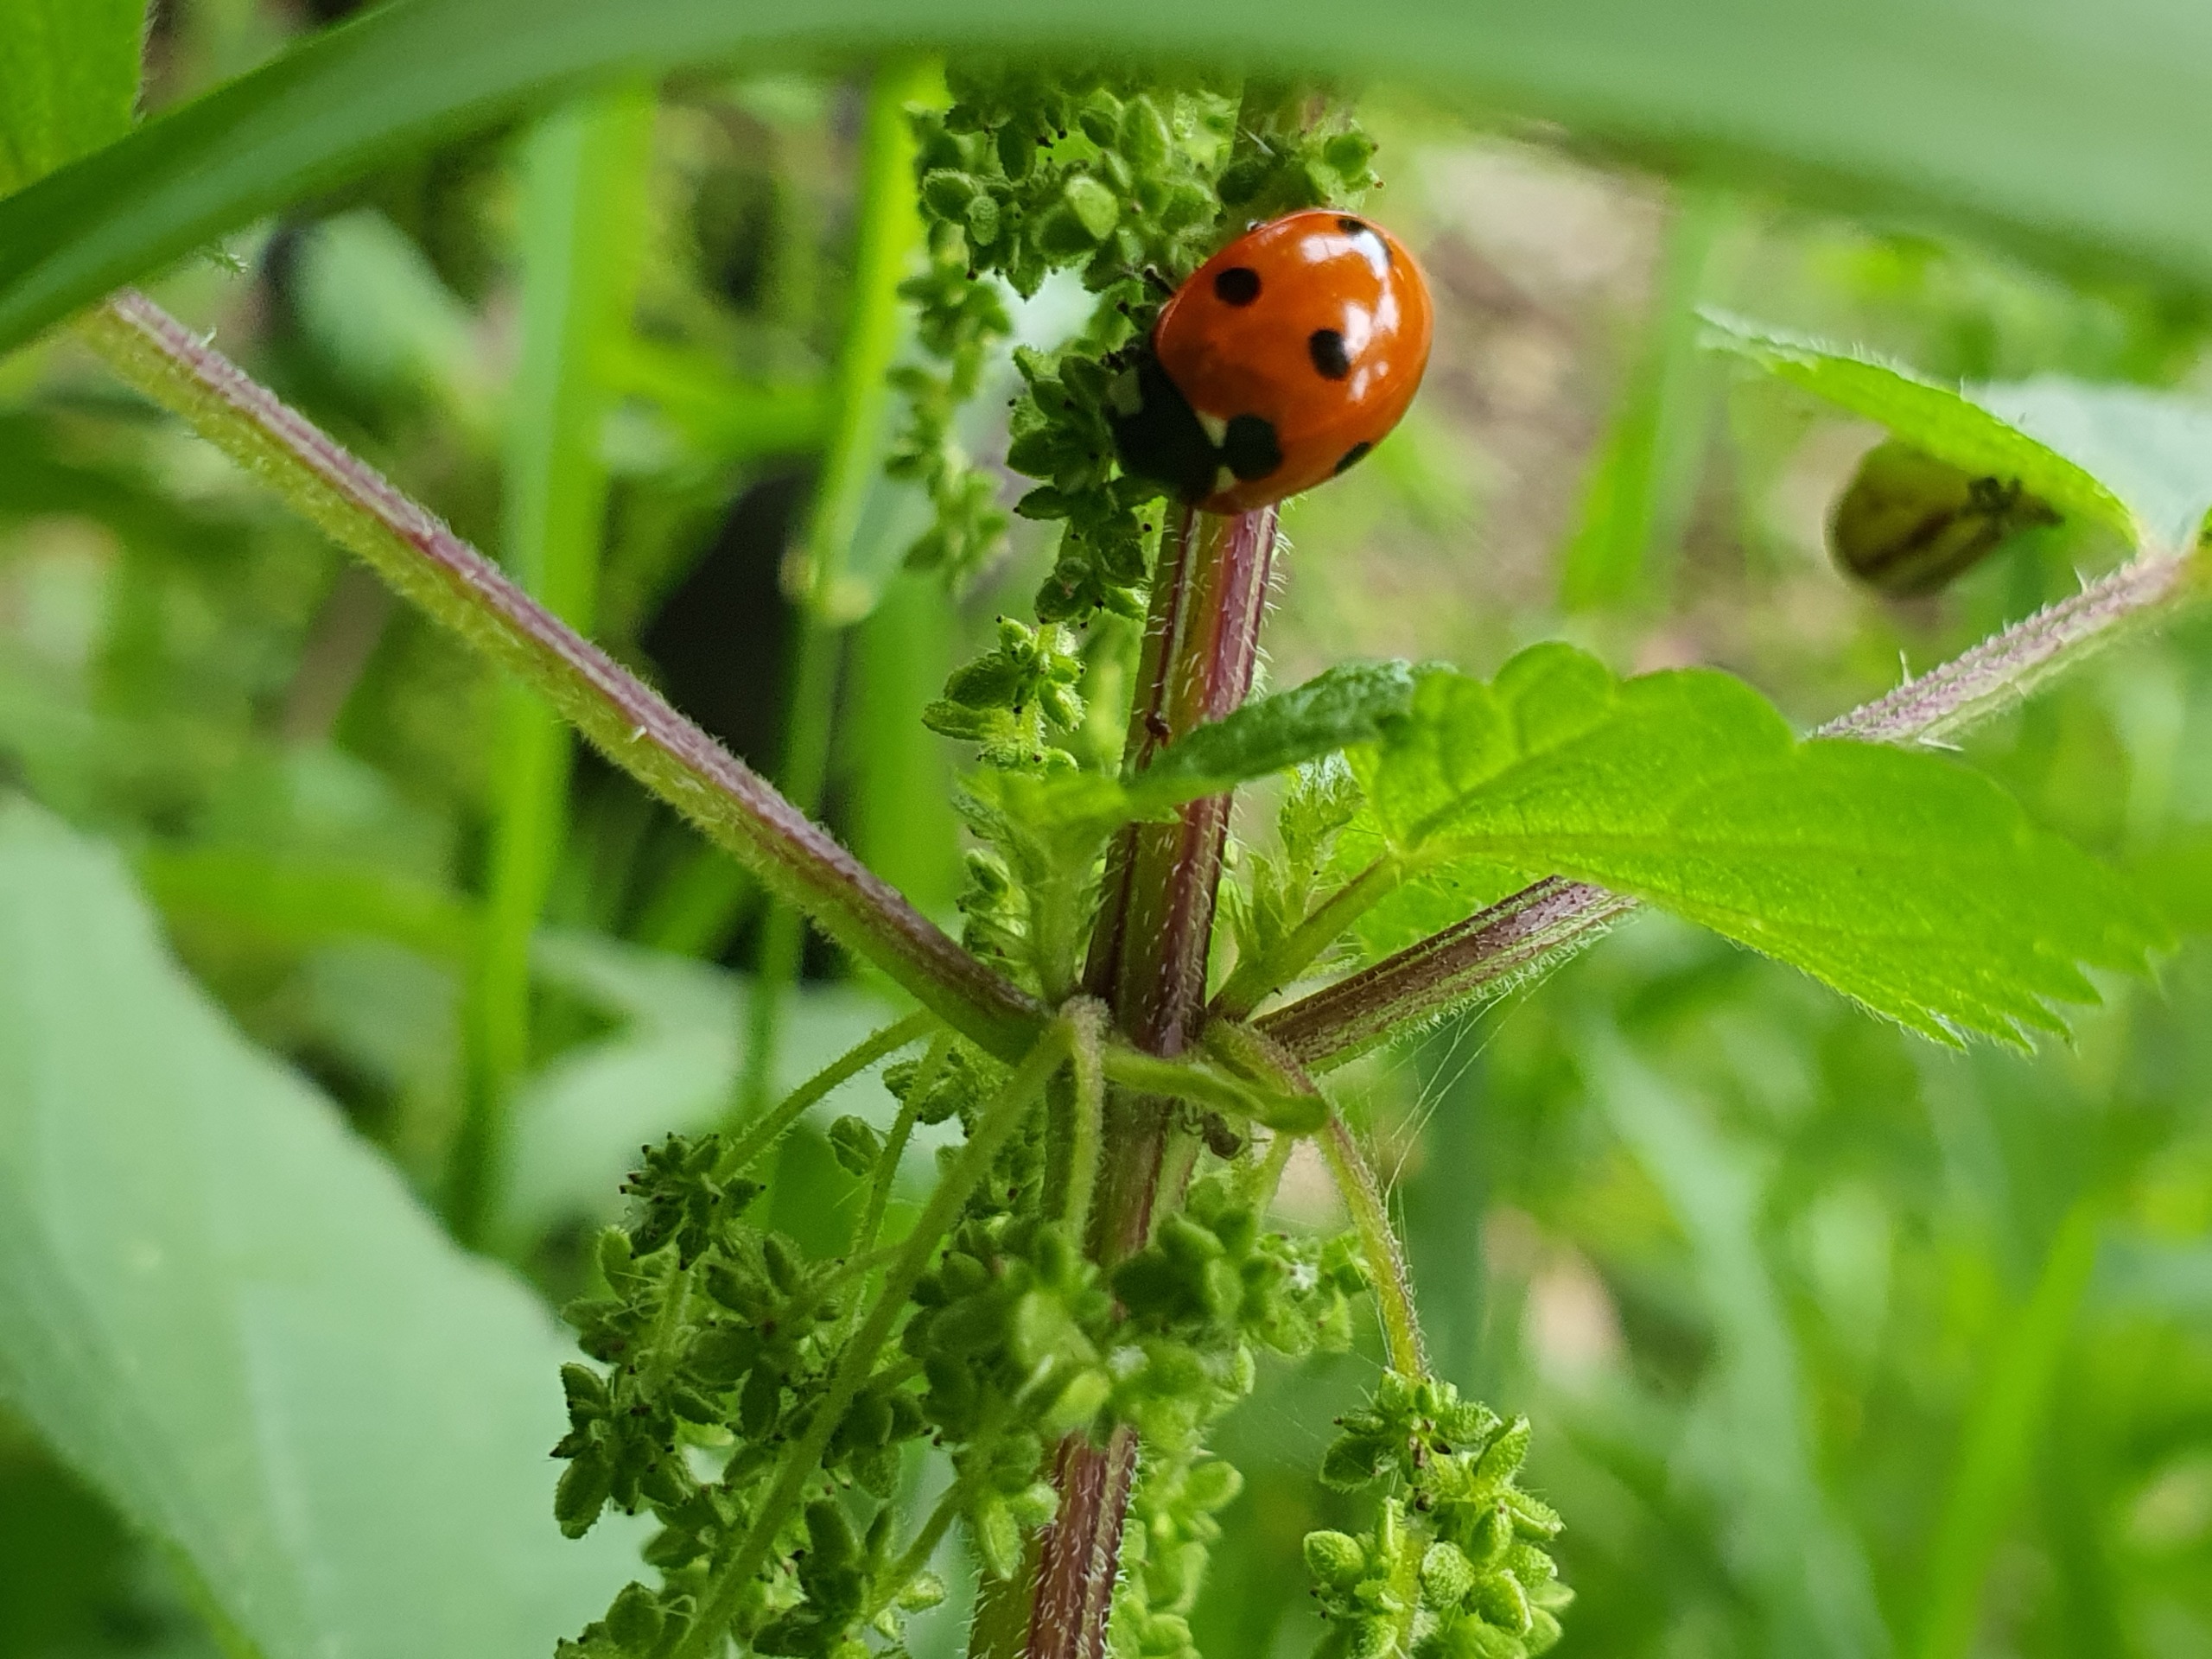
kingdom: Animalia
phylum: Arthropoda
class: Insecta
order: Coleoptera
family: Coccinellidae
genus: Coccinella
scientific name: Coccinella septempunctata
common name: Syvplettet mariehøne
